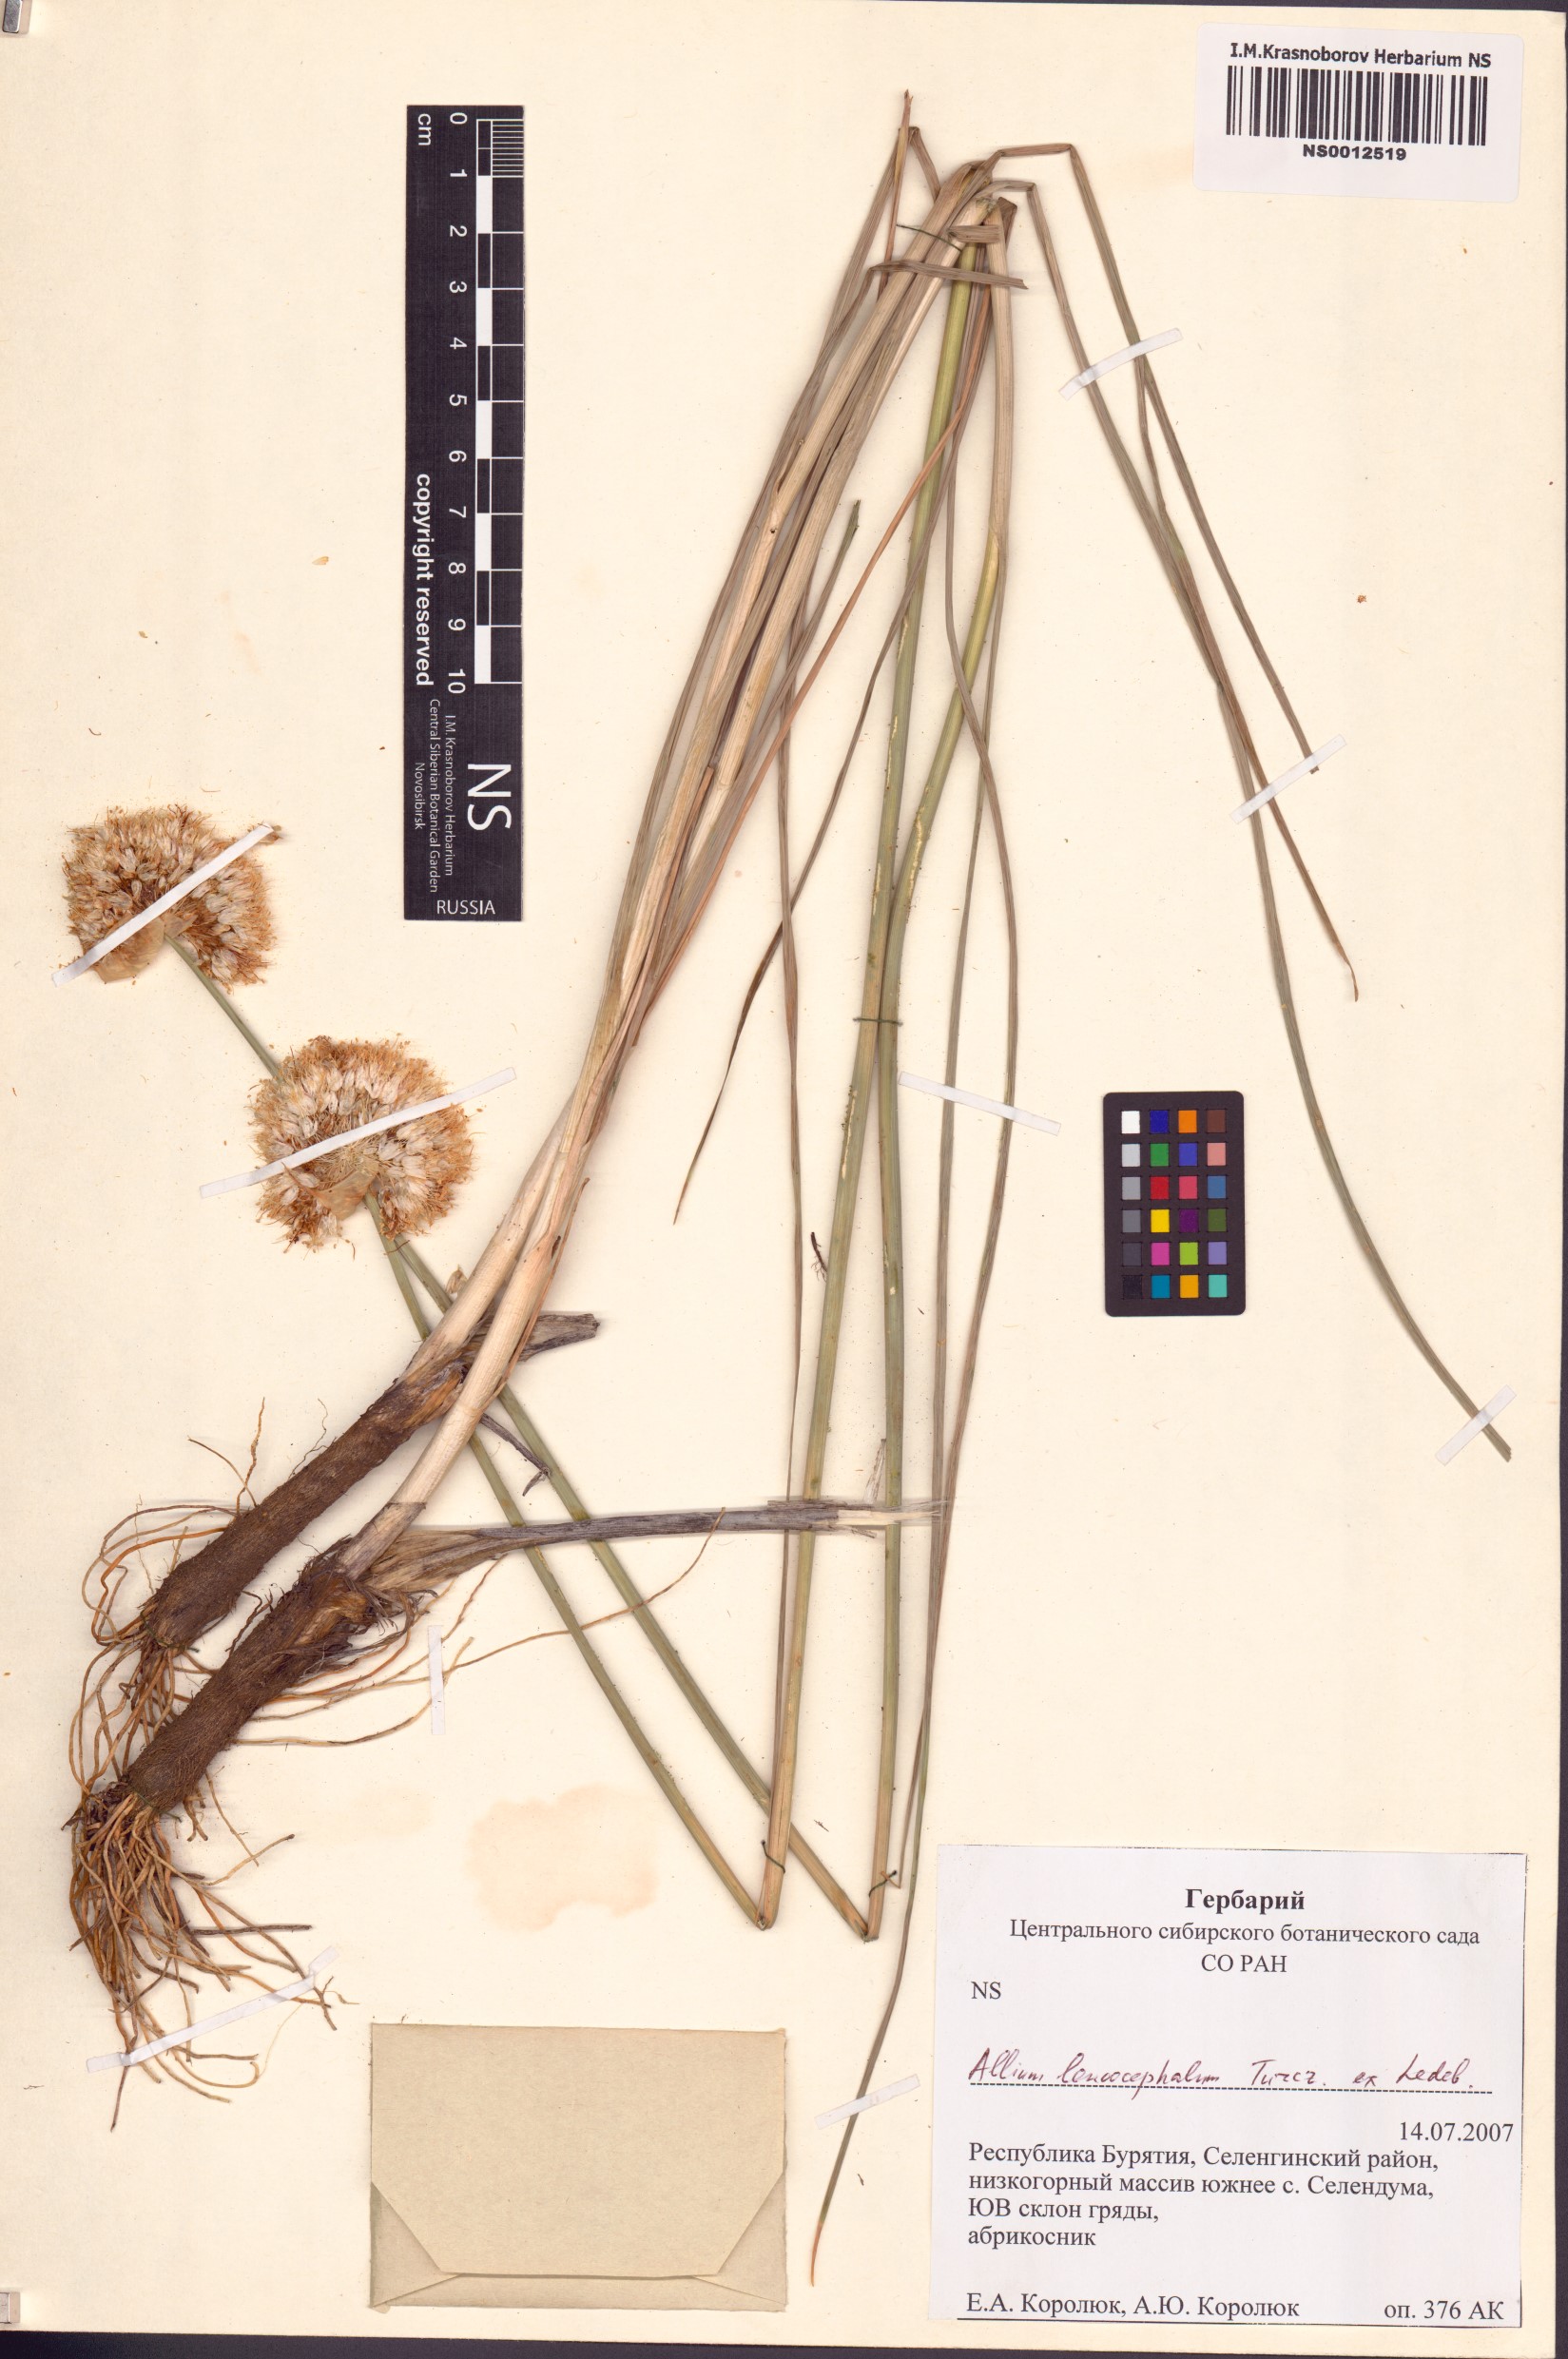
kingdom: Plantae
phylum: Tracheophyta
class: Liliopsida
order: Asparagales
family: Amaryllidaceae
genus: Allium
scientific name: Allium leucocephalum
